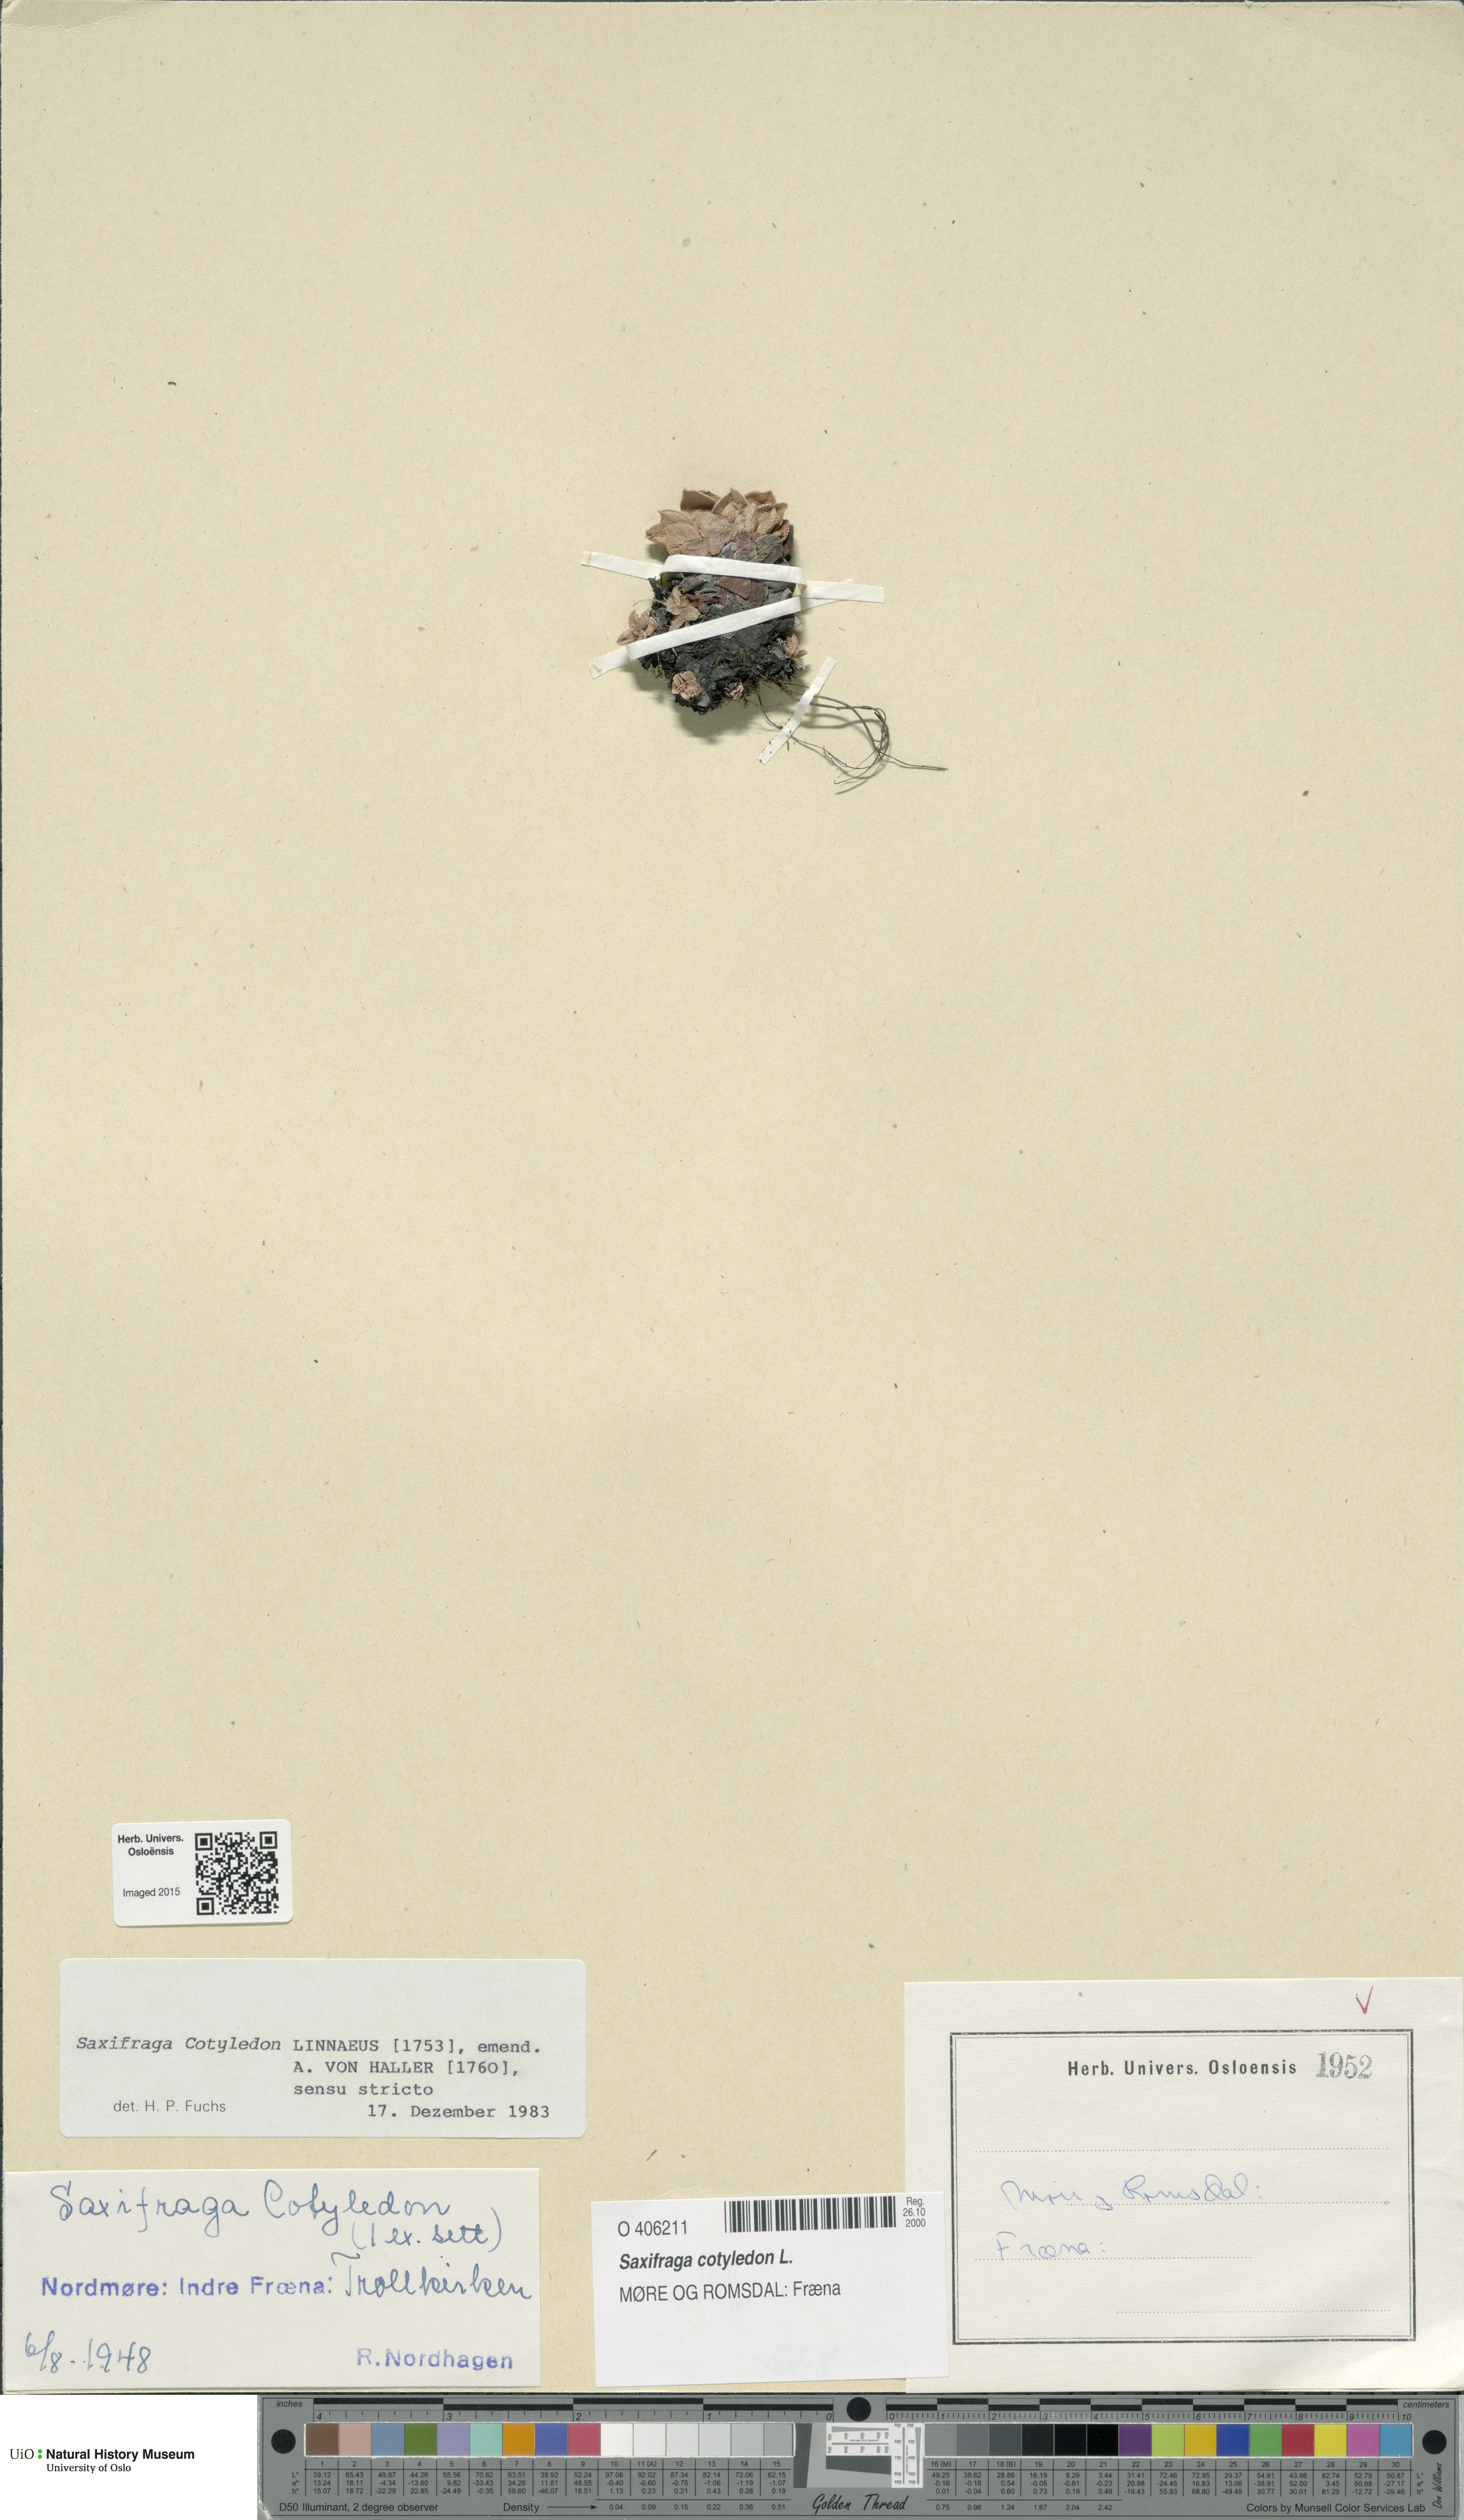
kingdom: Plantae
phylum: Tracheophyta
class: Magnoliopsida
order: Saxifragales
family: Saxifragaceae
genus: Saxifraga
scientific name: Saxifraga cotyledon
